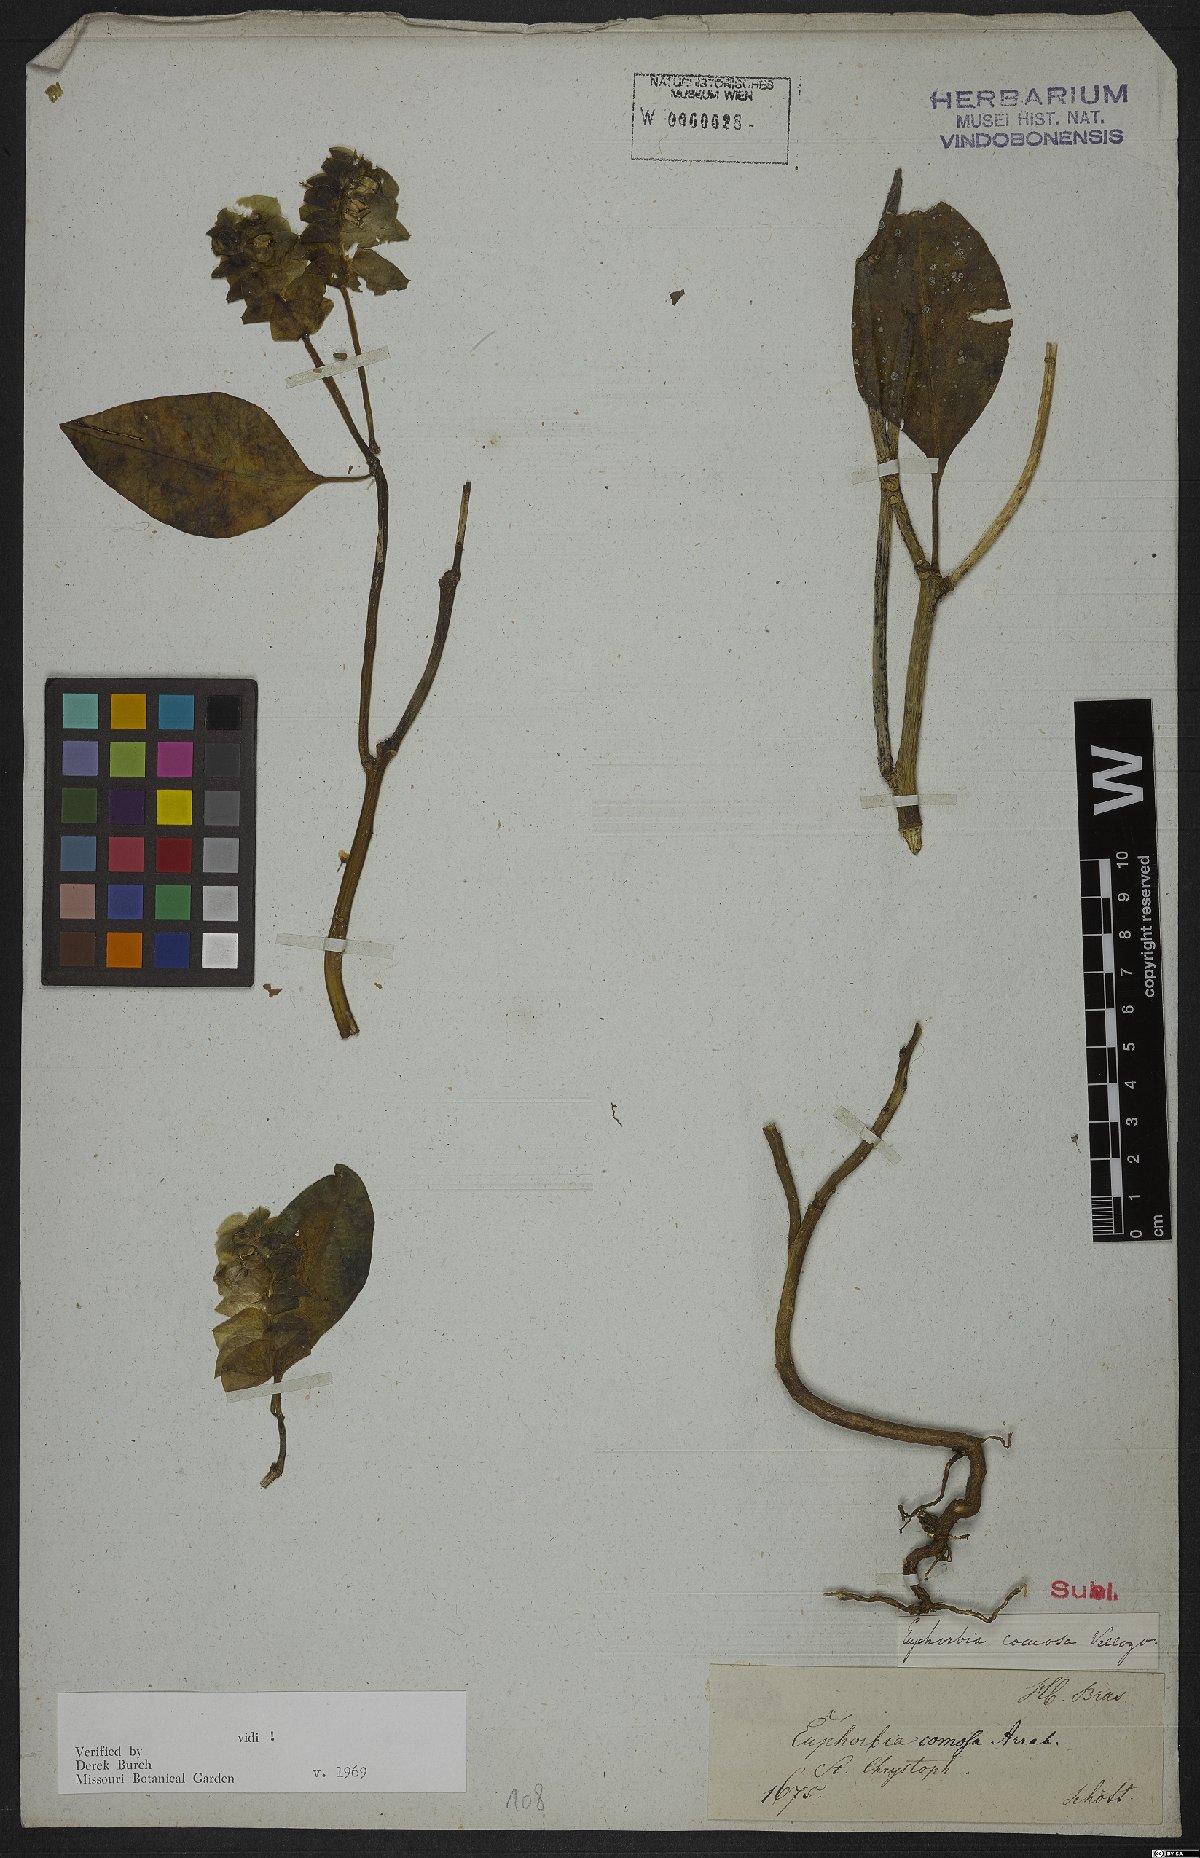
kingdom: Plantae
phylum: Tracheophyta
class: Magnoliopsida
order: Malpighiales
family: Euphorbiaceae
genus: Euphorbia
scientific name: Euphorbia comosa
